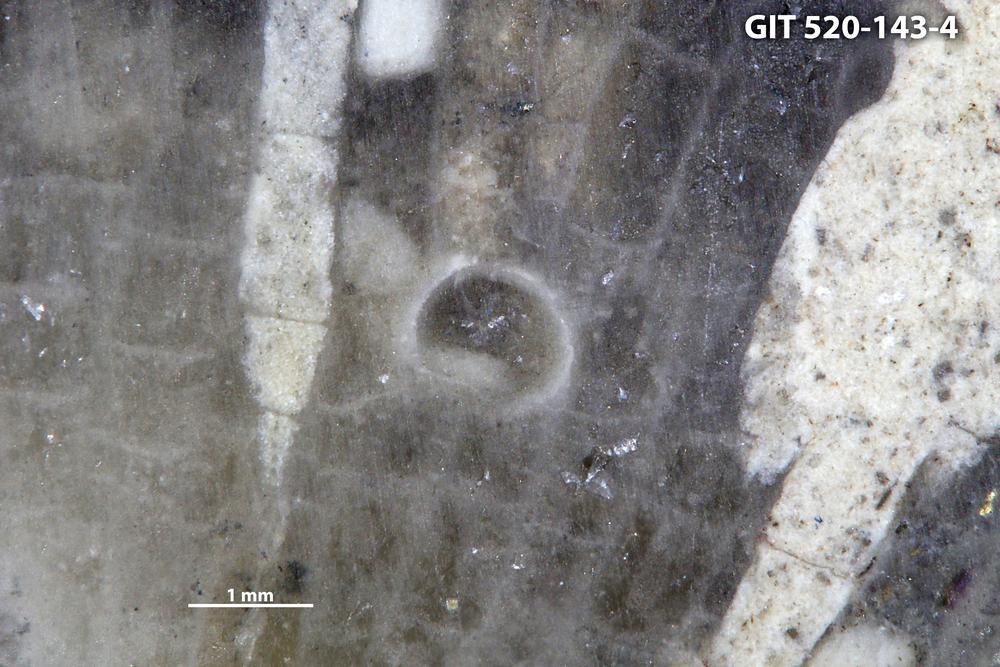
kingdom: Animalia
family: Cornulitidae
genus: Cornulites
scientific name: Cornulites
